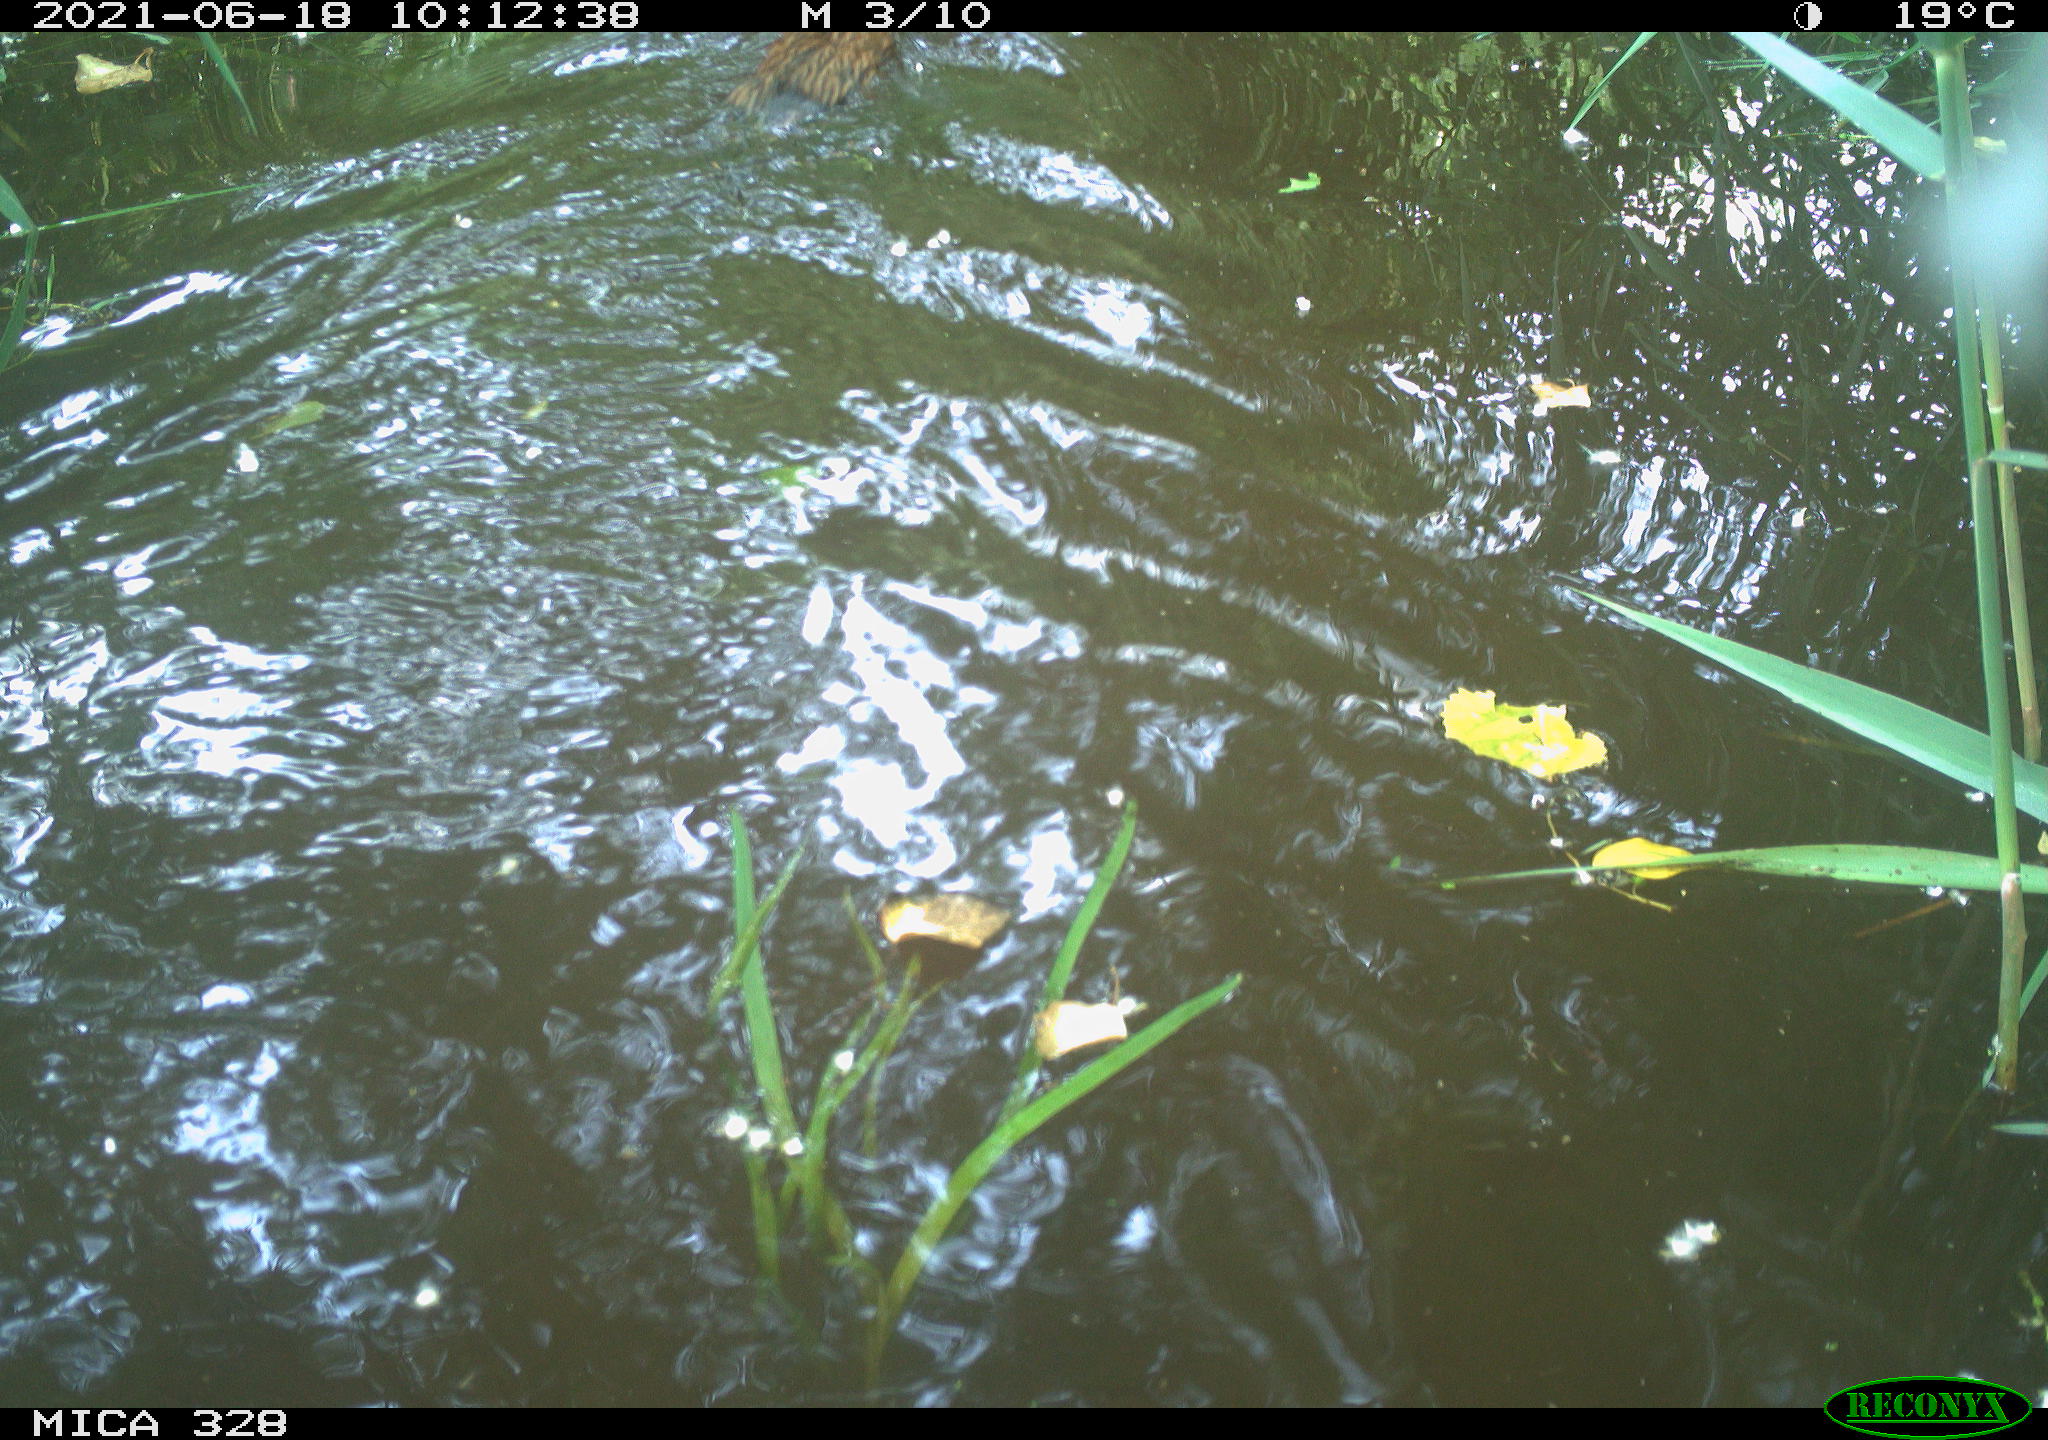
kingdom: Animalia
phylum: Chordata
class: Mammalia
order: Rodentia
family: Cricetidae
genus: Ondatra
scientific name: Ondatra zibethicus
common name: Muskrat
